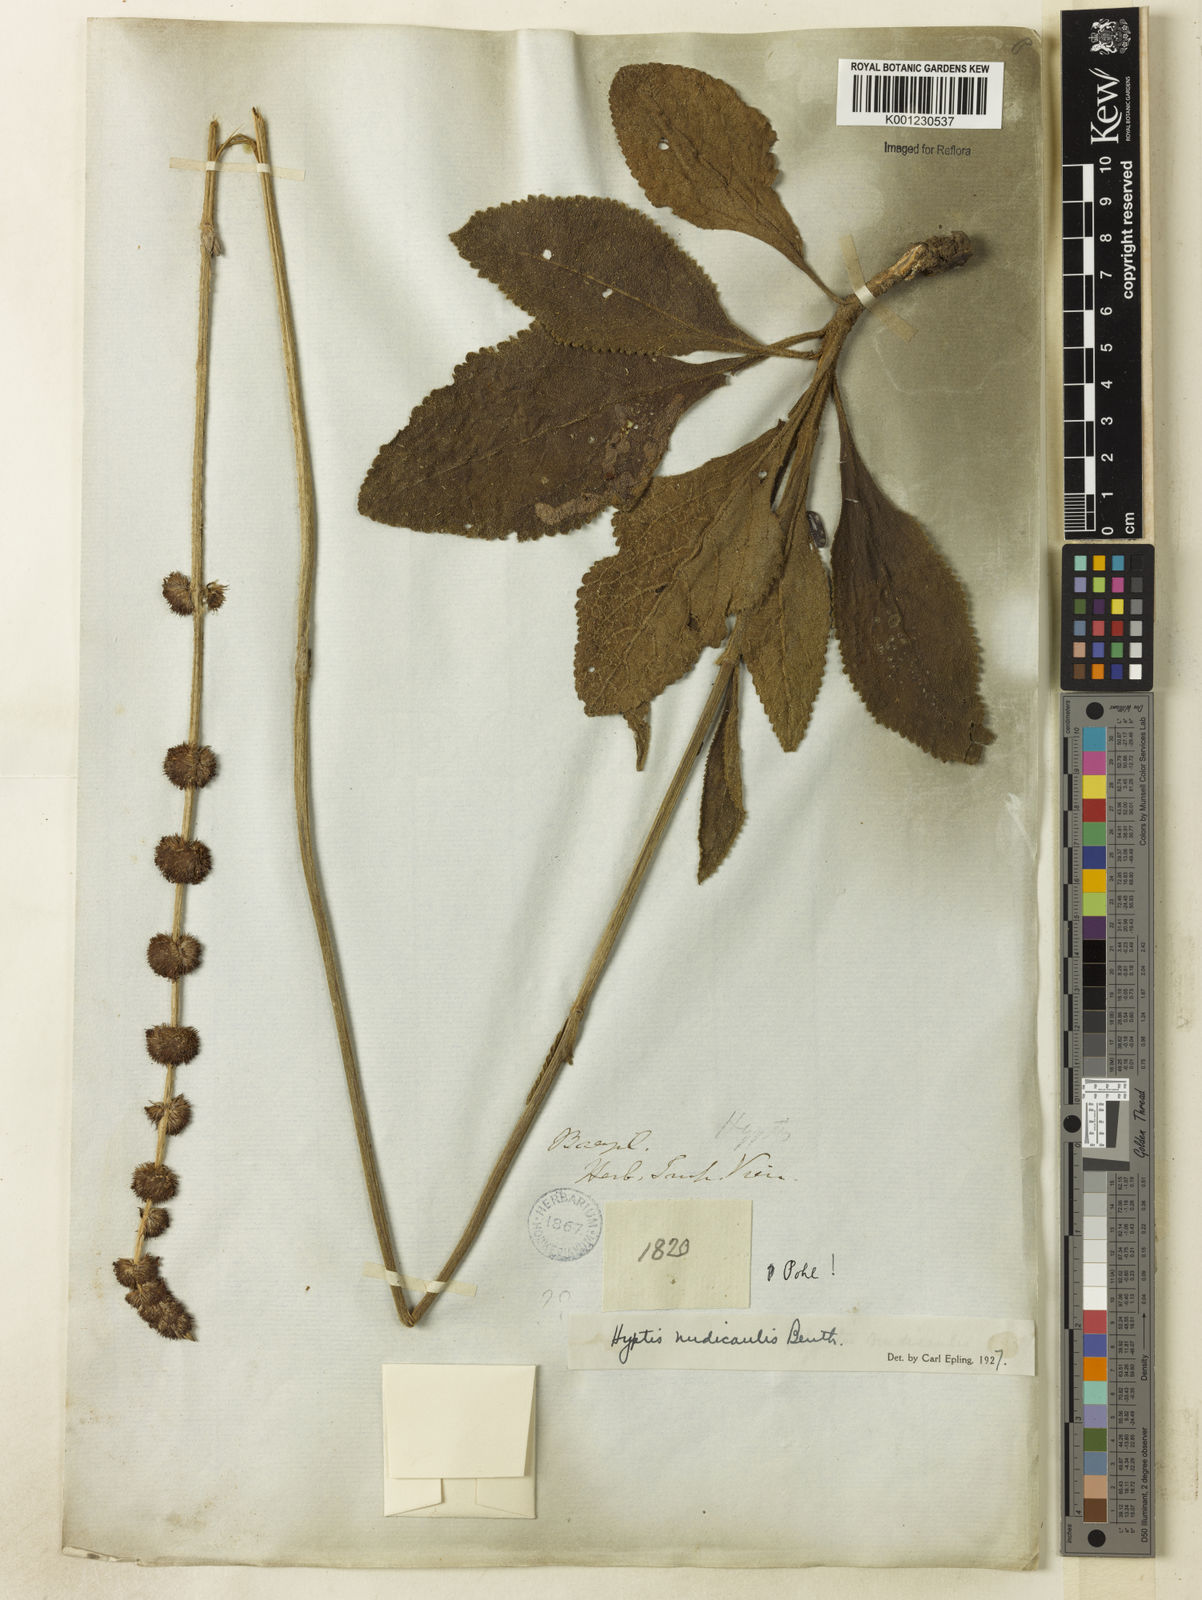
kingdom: Plantae
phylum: Tracheophyta
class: Magnoliopsida
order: Lamiales
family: Lamiaceae
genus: Hyptis
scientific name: Hyptis nudicaulis
